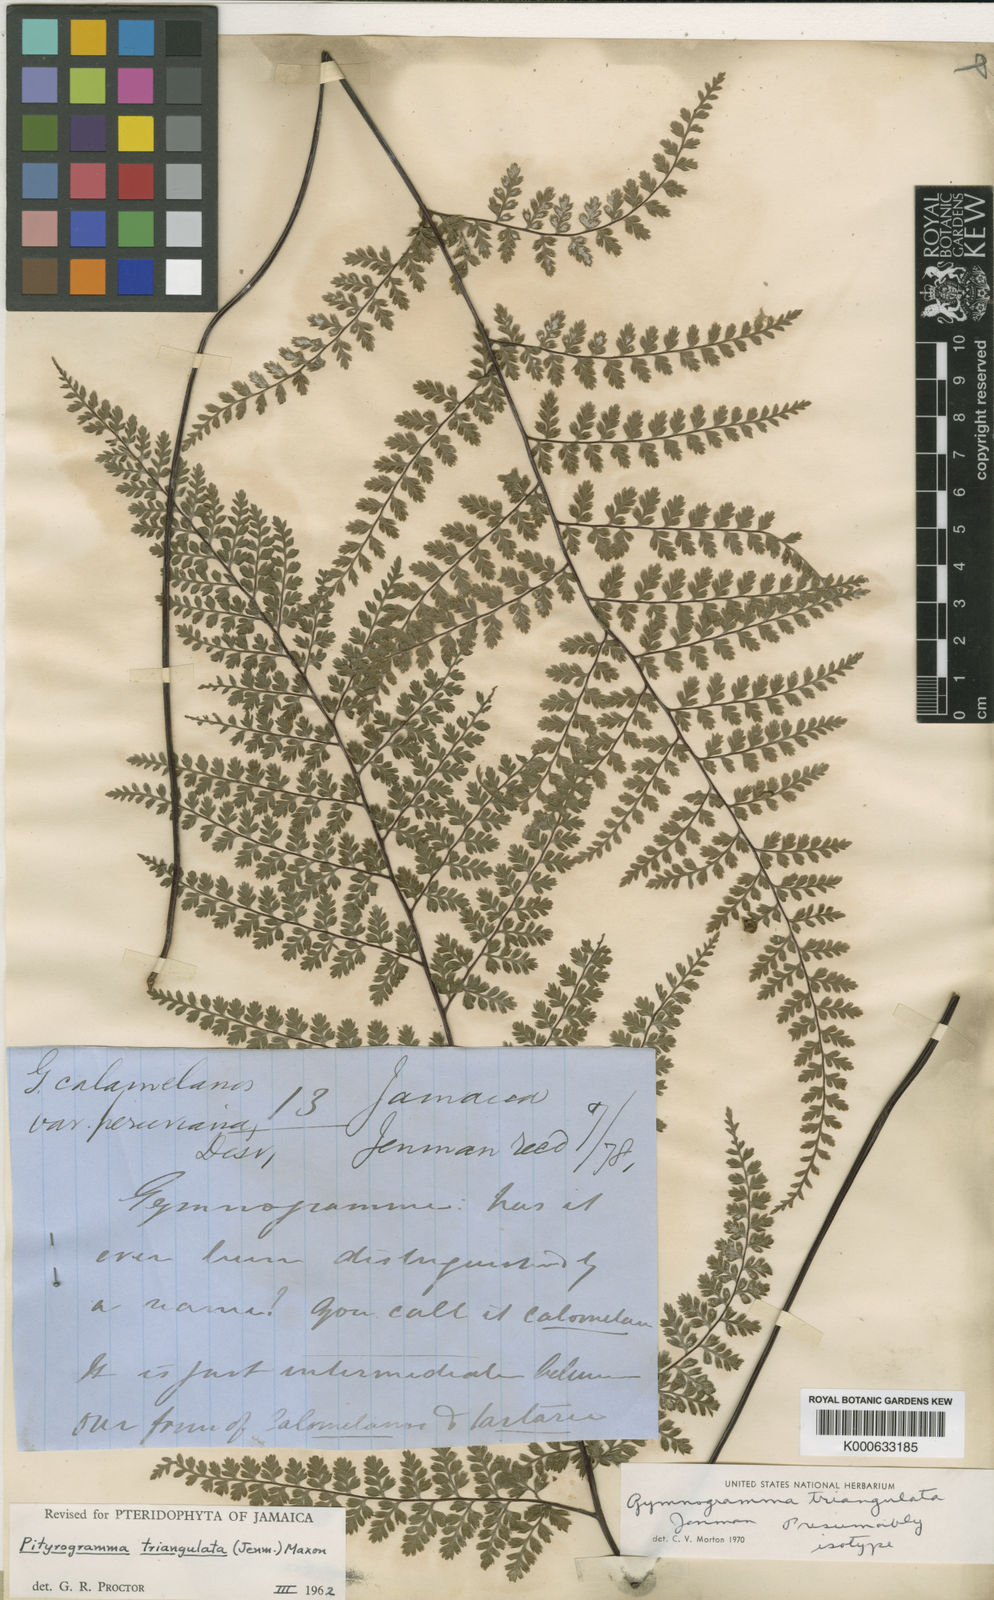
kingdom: Plantae
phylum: Tracheophyta
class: Polypodiopsida
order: Polypodiales
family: Pteridaceae
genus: Pityrogramma
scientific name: Pityrogramma triangulata
